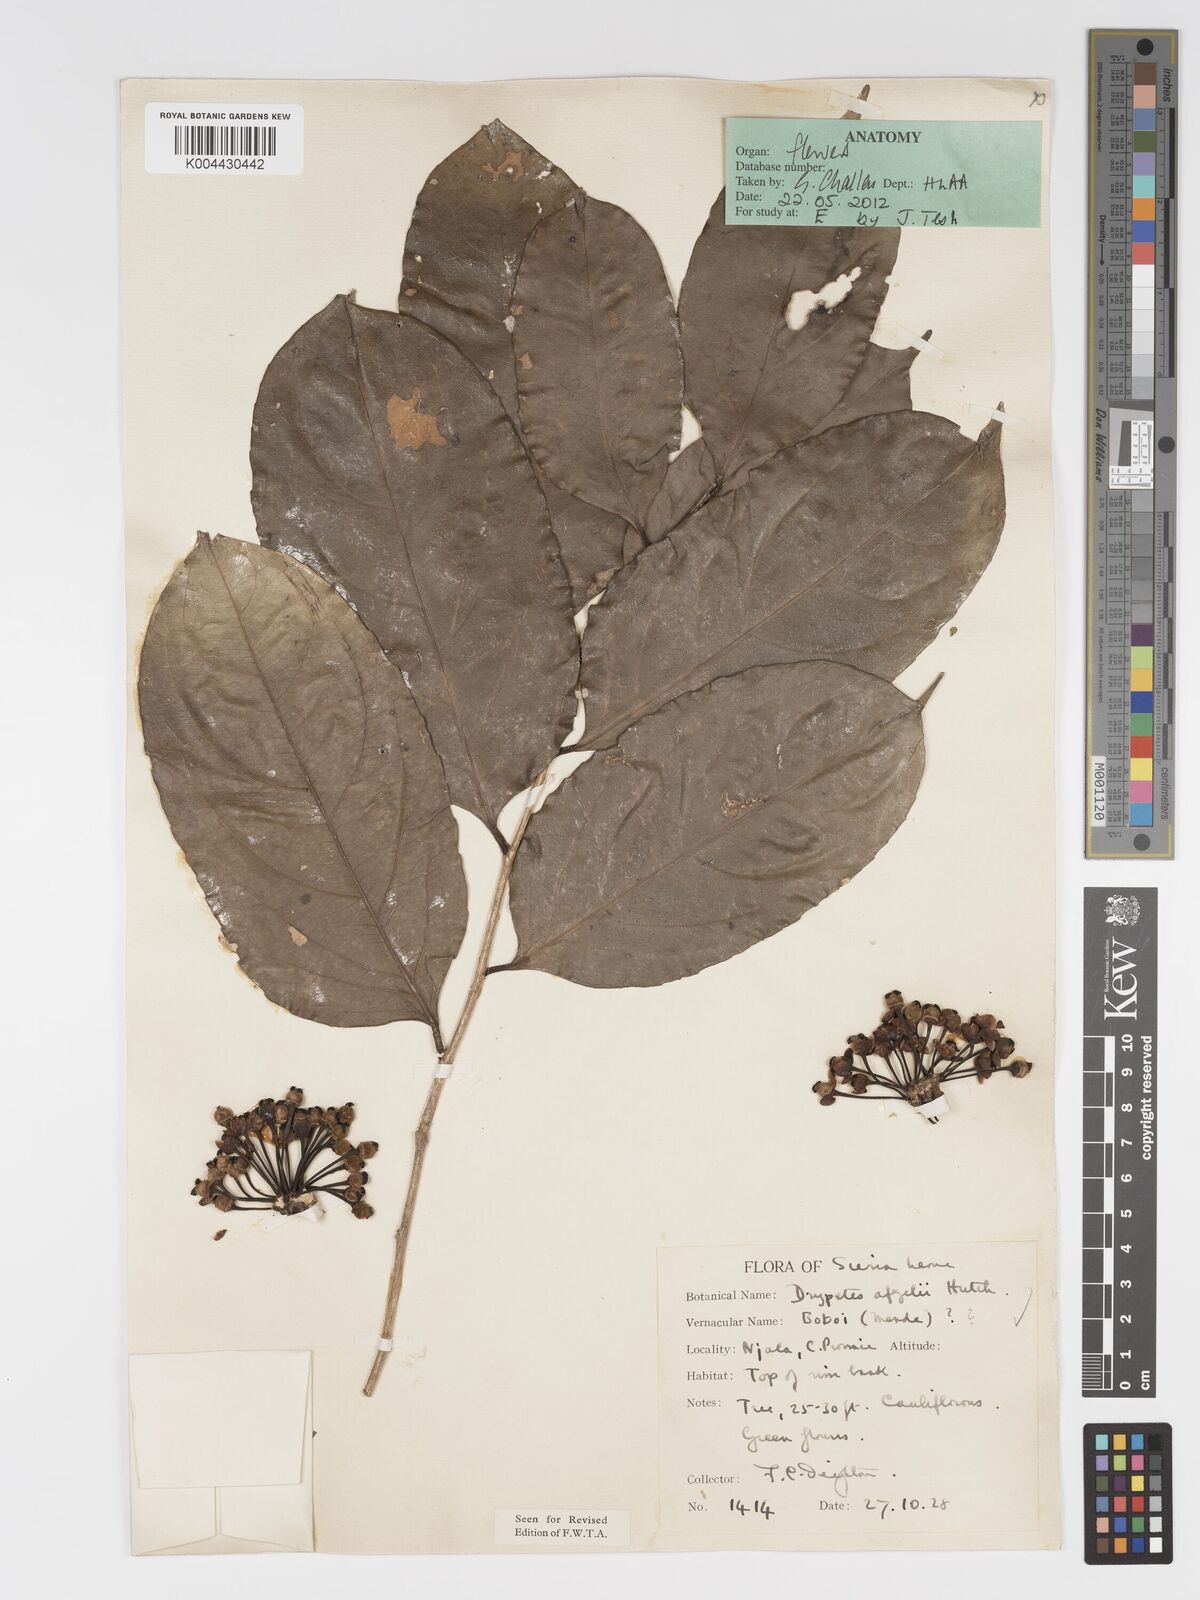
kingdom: Plantae
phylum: Tracheophyta
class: Magnoliopsida
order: Malpighiales
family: Putranjivaceae
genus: Drypetes
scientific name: Drypetes afzelii
